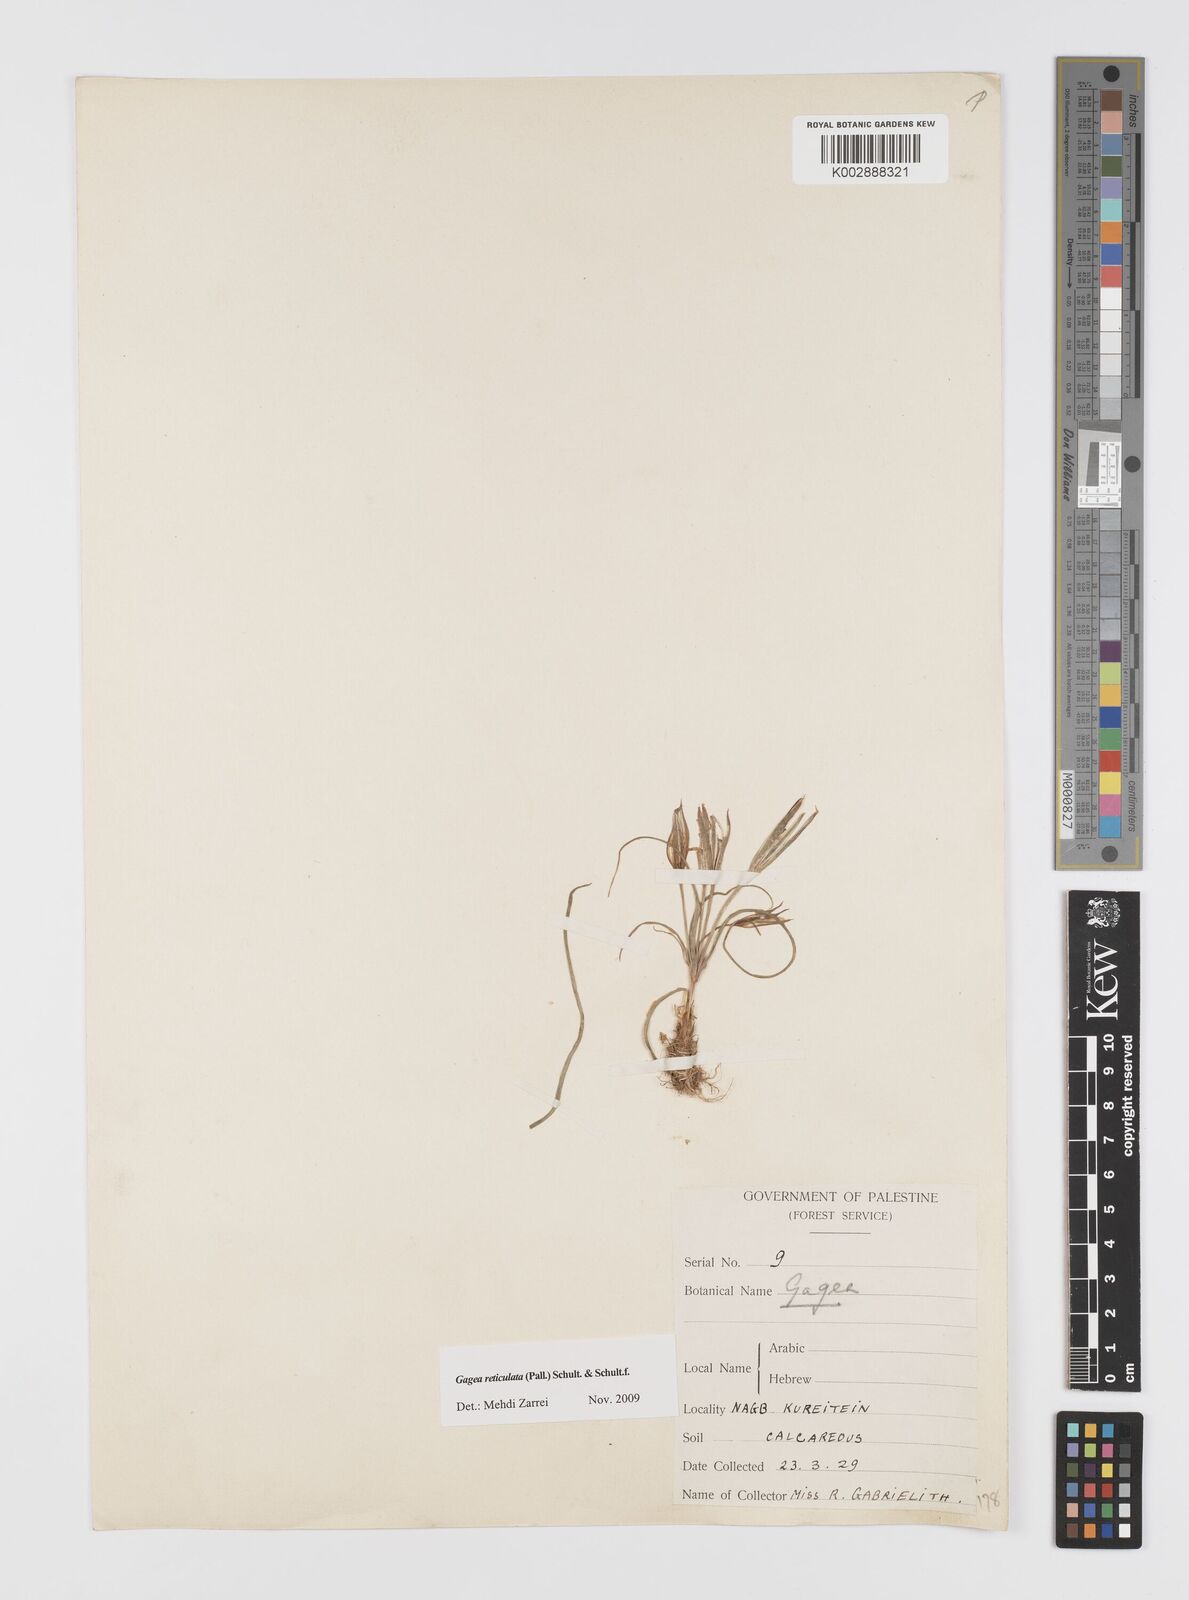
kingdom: Plantae
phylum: Tracheophyta
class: Liliopsida
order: Liliales
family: Liliaceae
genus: Gagea
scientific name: Gagea reticulata
